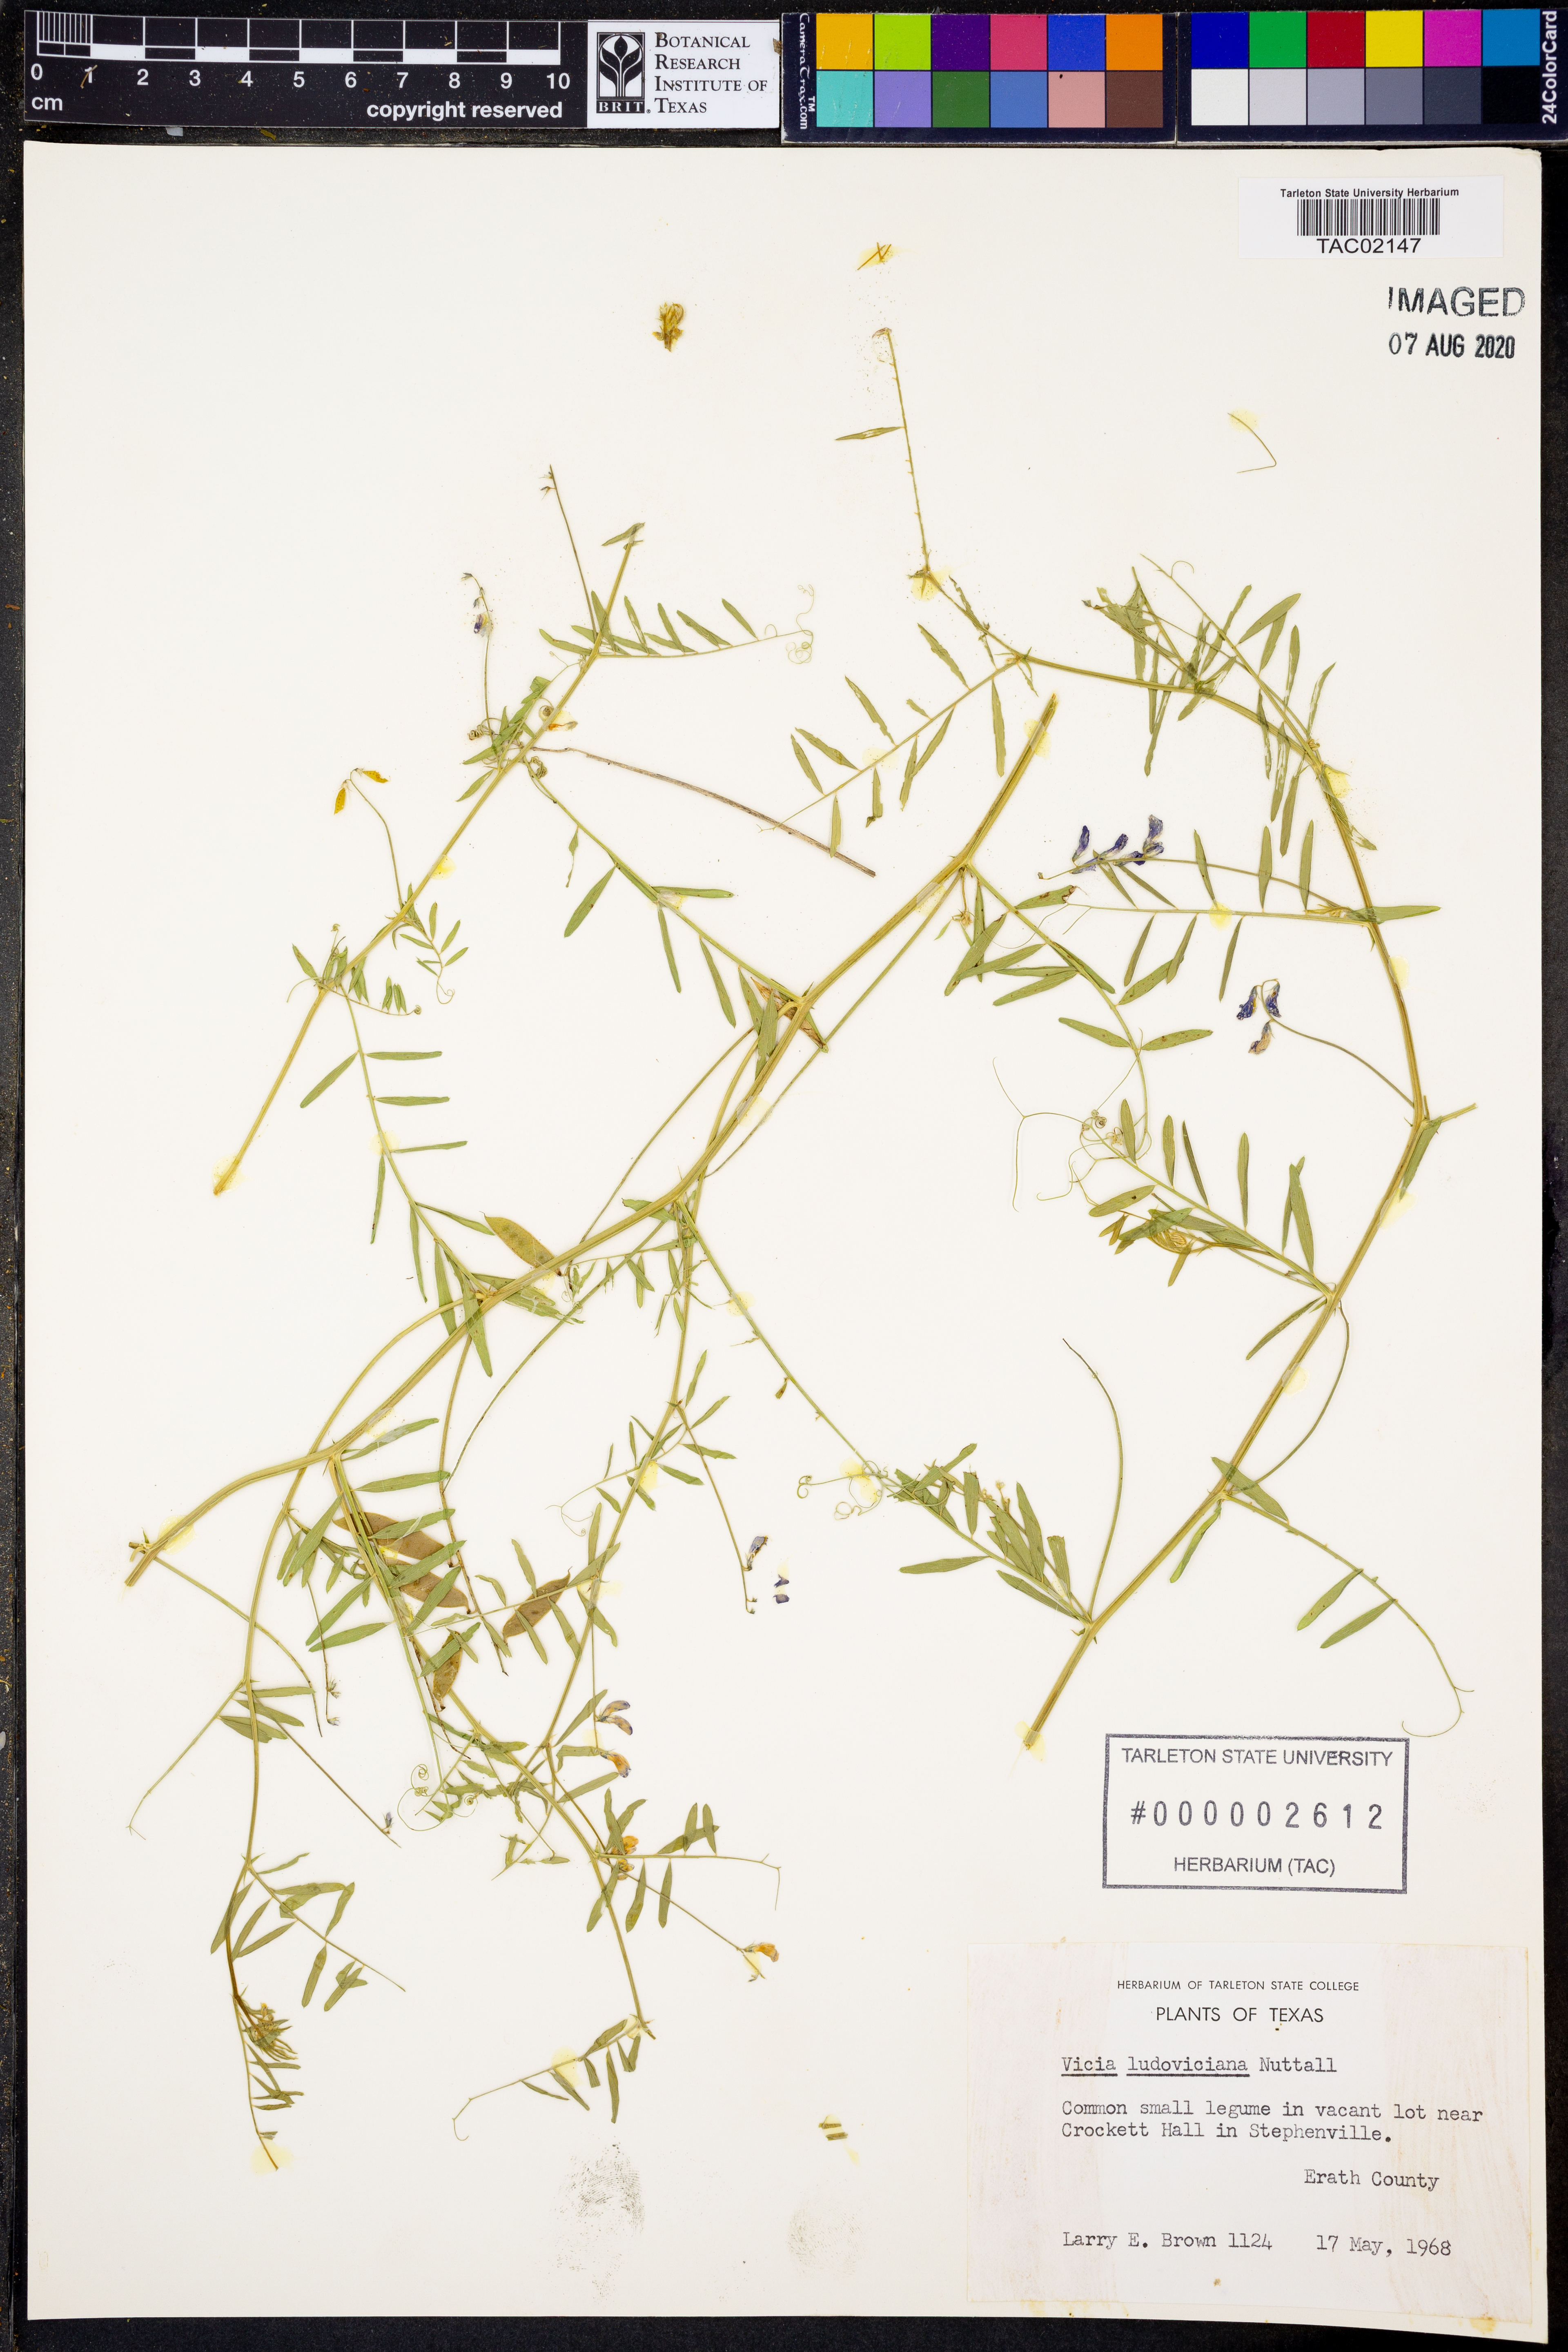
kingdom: Plantae
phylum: Tracheophyta
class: Magnoliopsida
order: Fabales
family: Fabaceae
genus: Vicia
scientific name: Vicia ludoviciana
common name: Louisiana vetch
